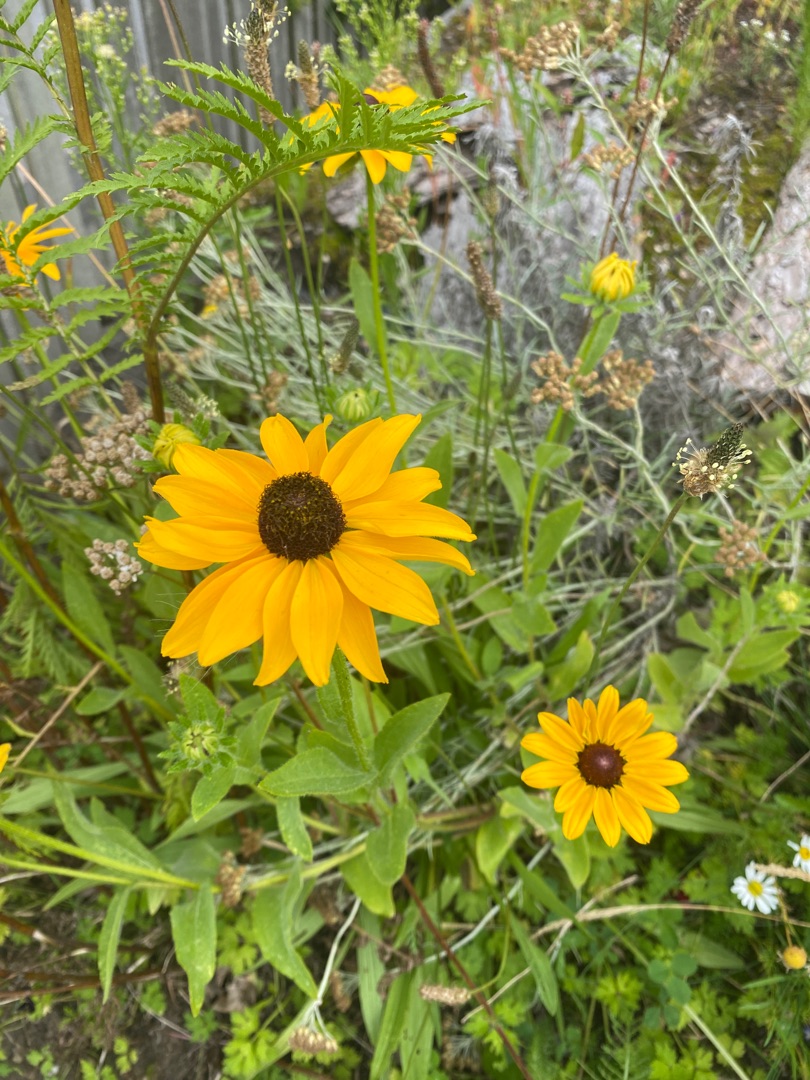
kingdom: Plantae
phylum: Tracheophyta
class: Magnoliopsida
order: Asterales
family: Asteraceae
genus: Rudbeckia
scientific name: Rudbeckia hirta
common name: Håret solhat
